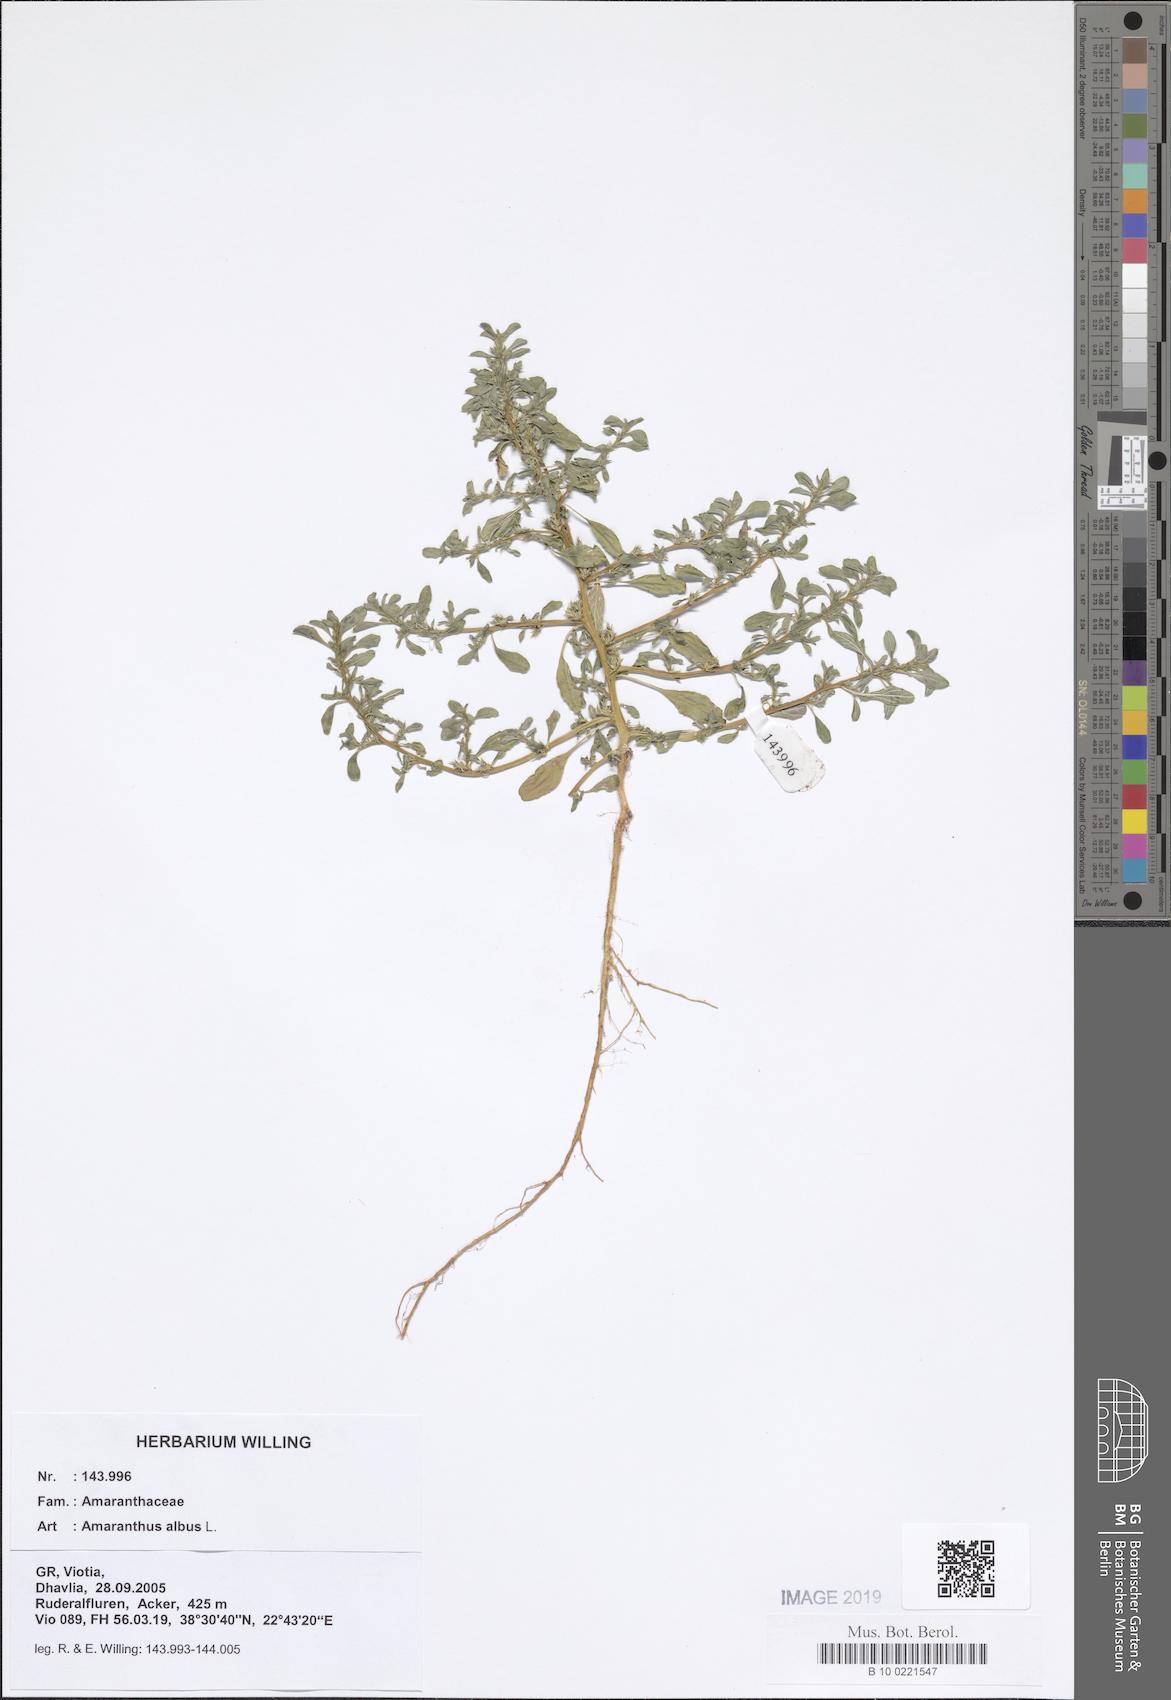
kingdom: Plantae
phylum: Tracheophyta
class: Magnoliopsida
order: Caryophyllales
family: Amaranthaceae
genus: Amaranthus
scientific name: Amaranthus albus
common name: White pigweed
